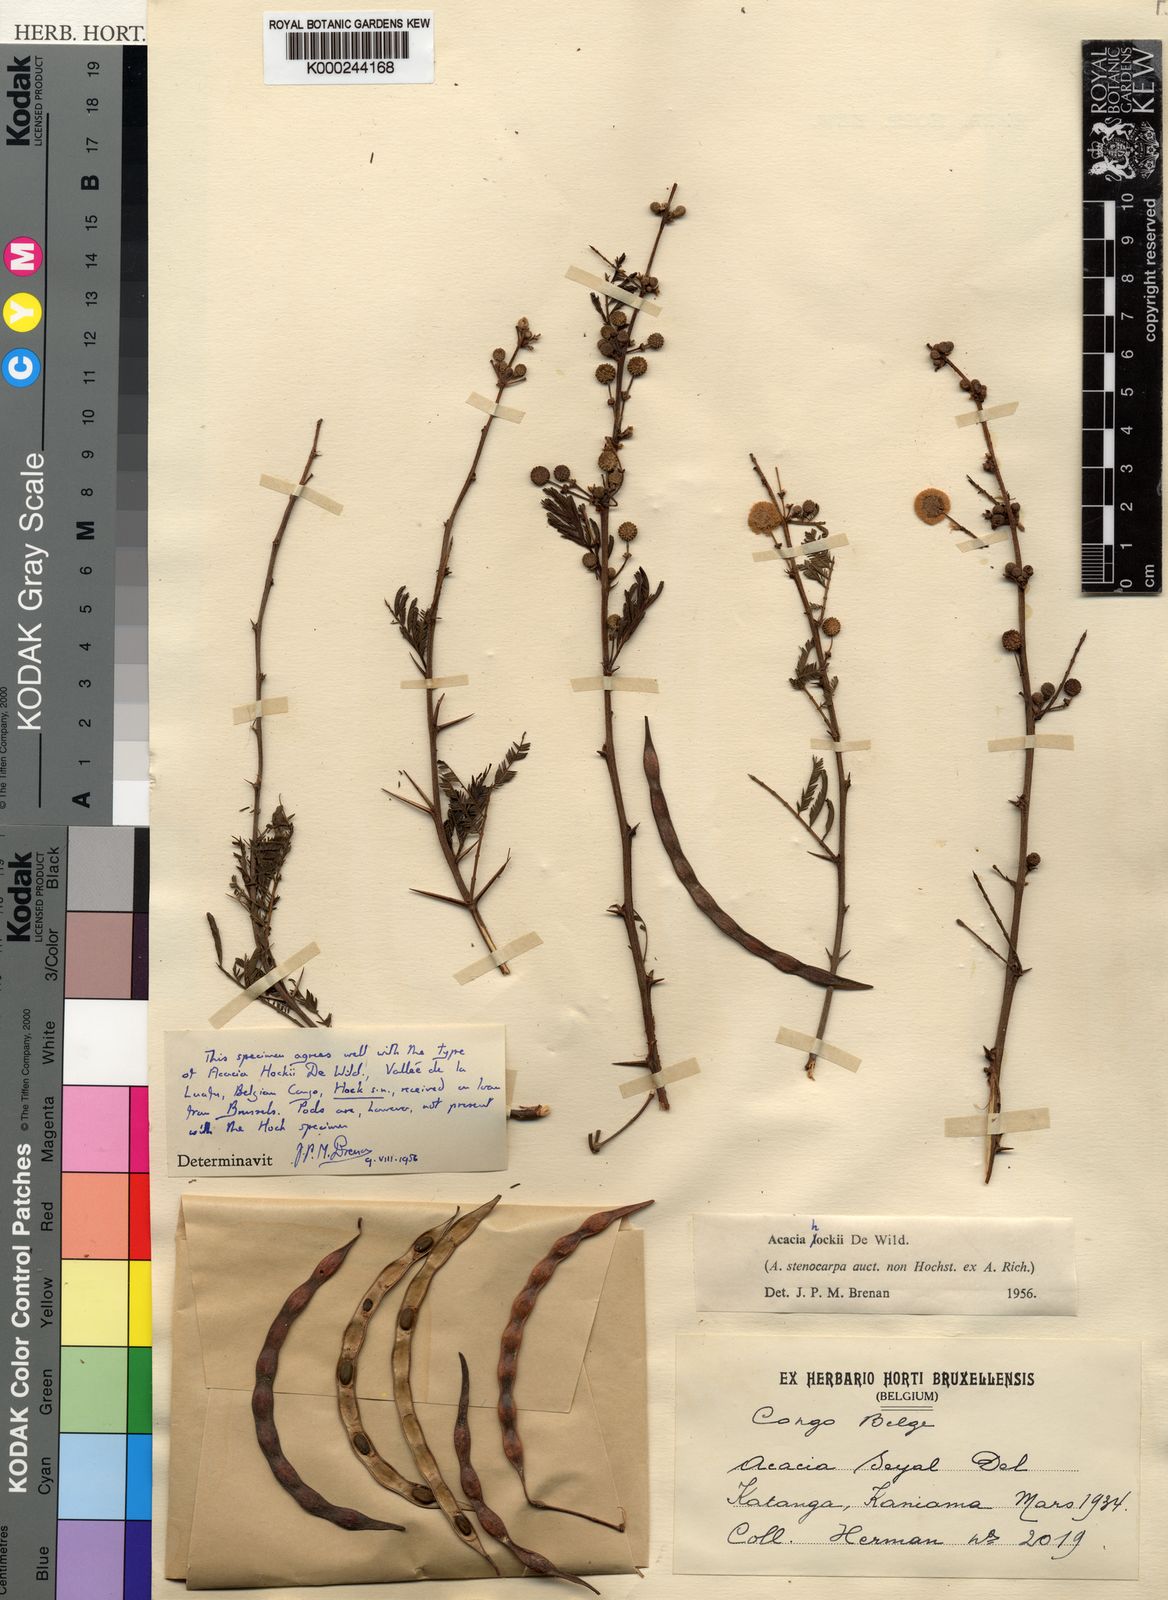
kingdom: Plantae
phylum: Tracheophyta
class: Magnoliopsida
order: Fabales
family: Fabaceae
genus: Vachellia
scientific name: Vachellia hockii
